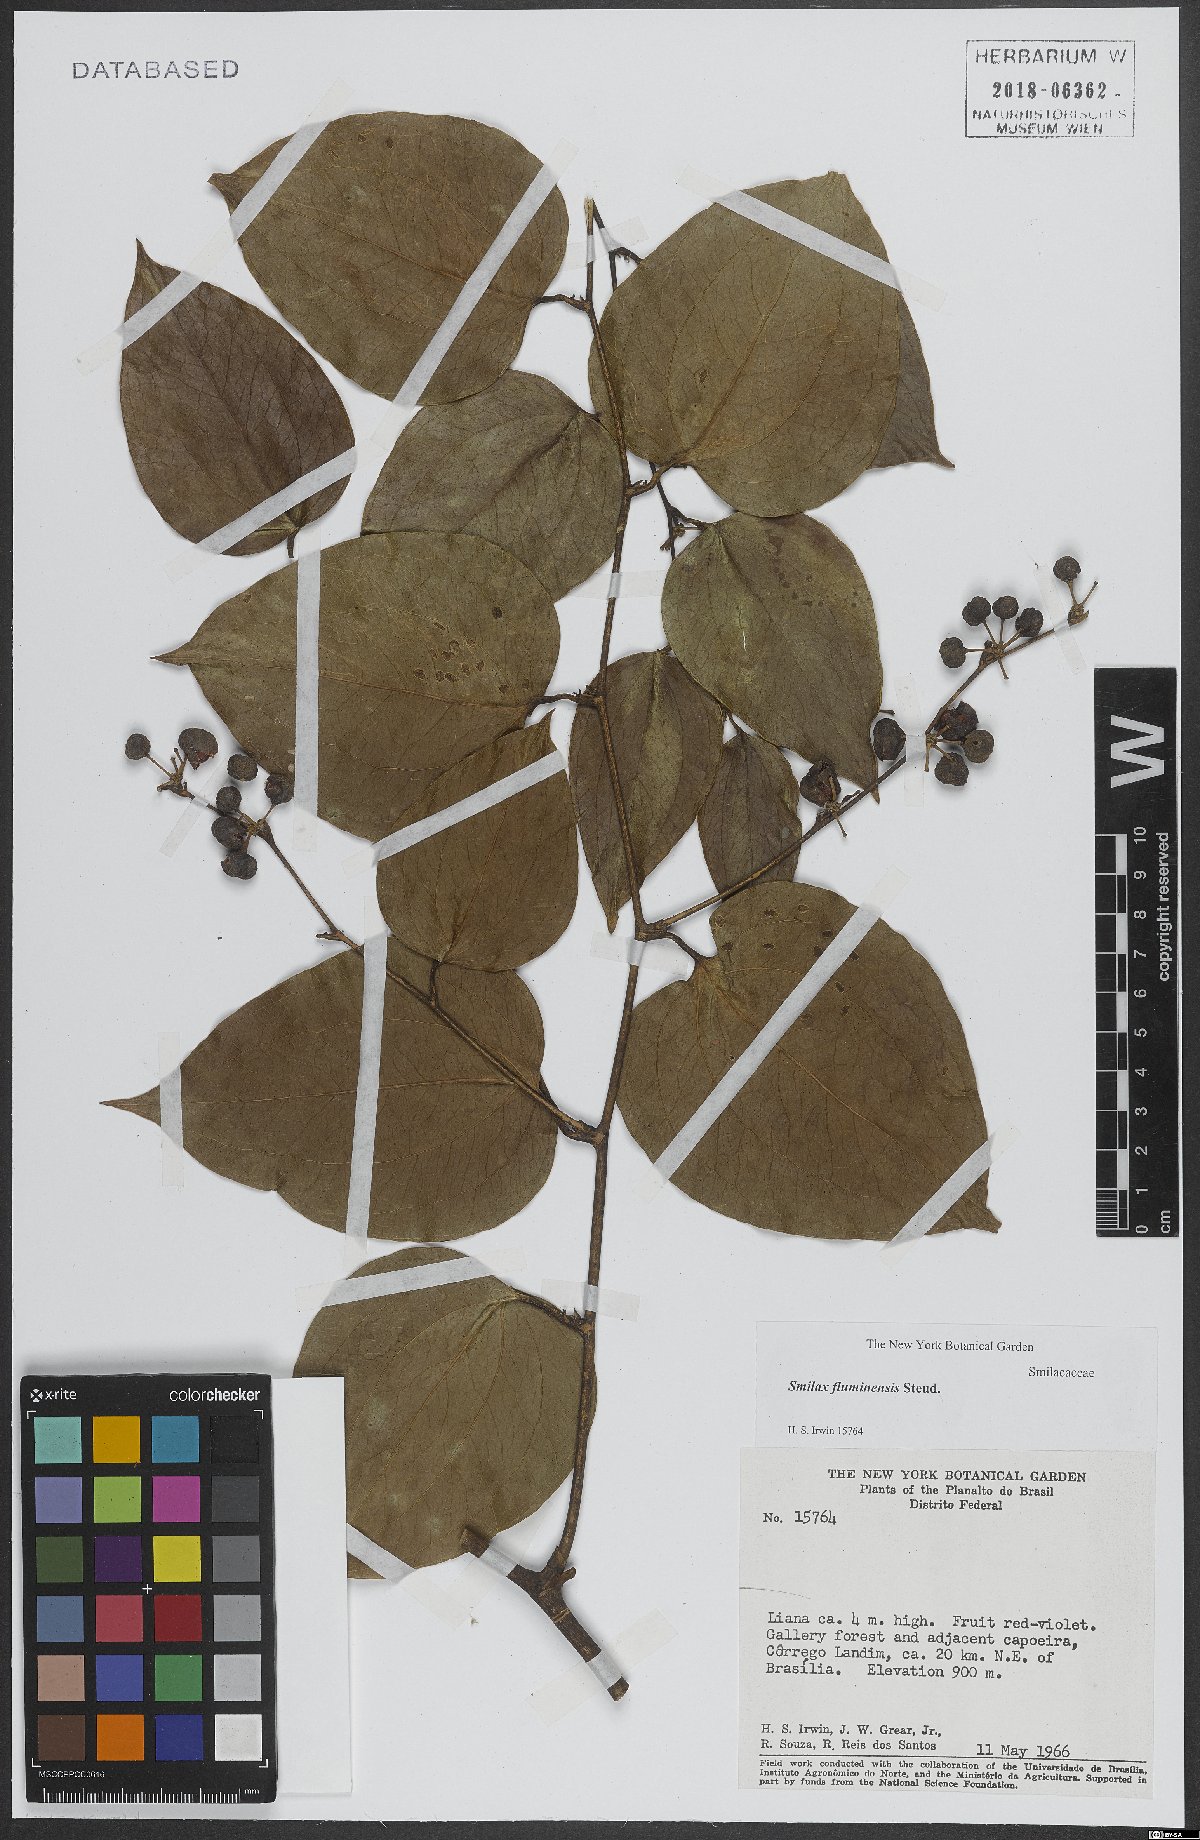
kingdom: Plantae
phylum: Tracheophyta
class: Liliopsida
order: Liliales
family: Smilacaceae
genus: Smilax
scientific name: Smilax fluminensis
